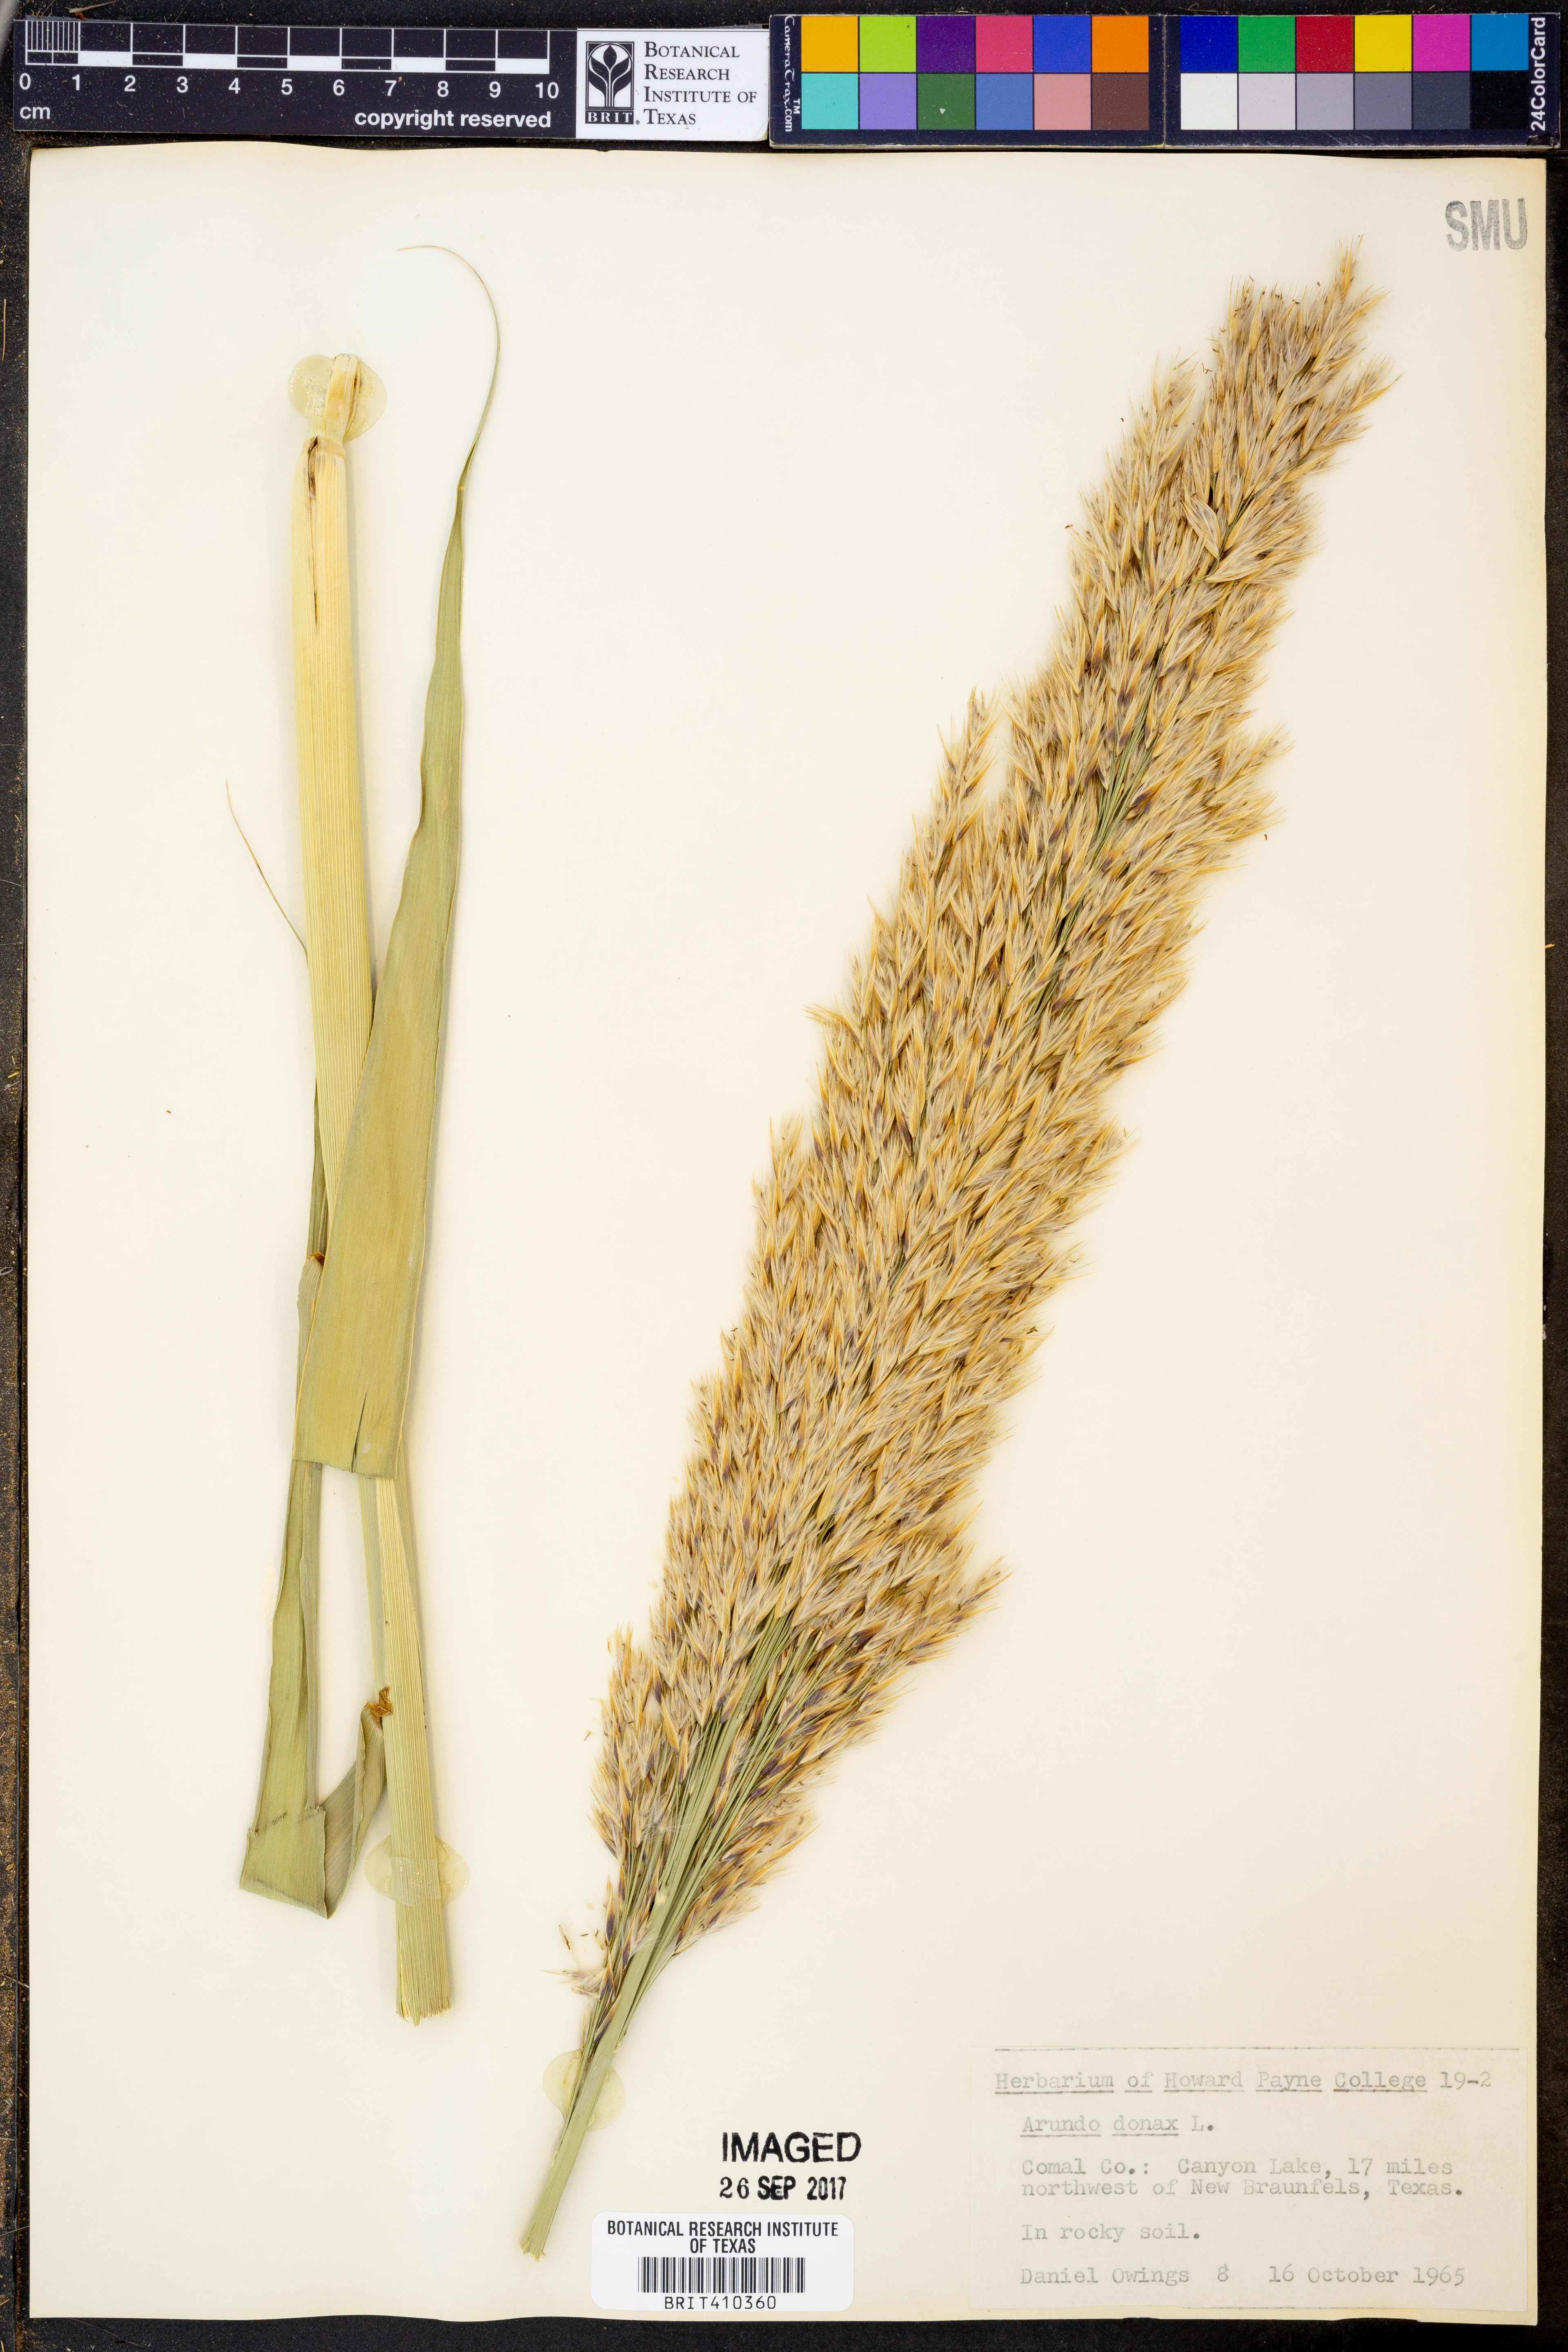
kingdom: Plantae
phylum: Tracheophyta
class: Liliopsida
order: Poales
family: Poaceae
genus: Arundo
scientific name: Arundo donax
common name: Giant reed
